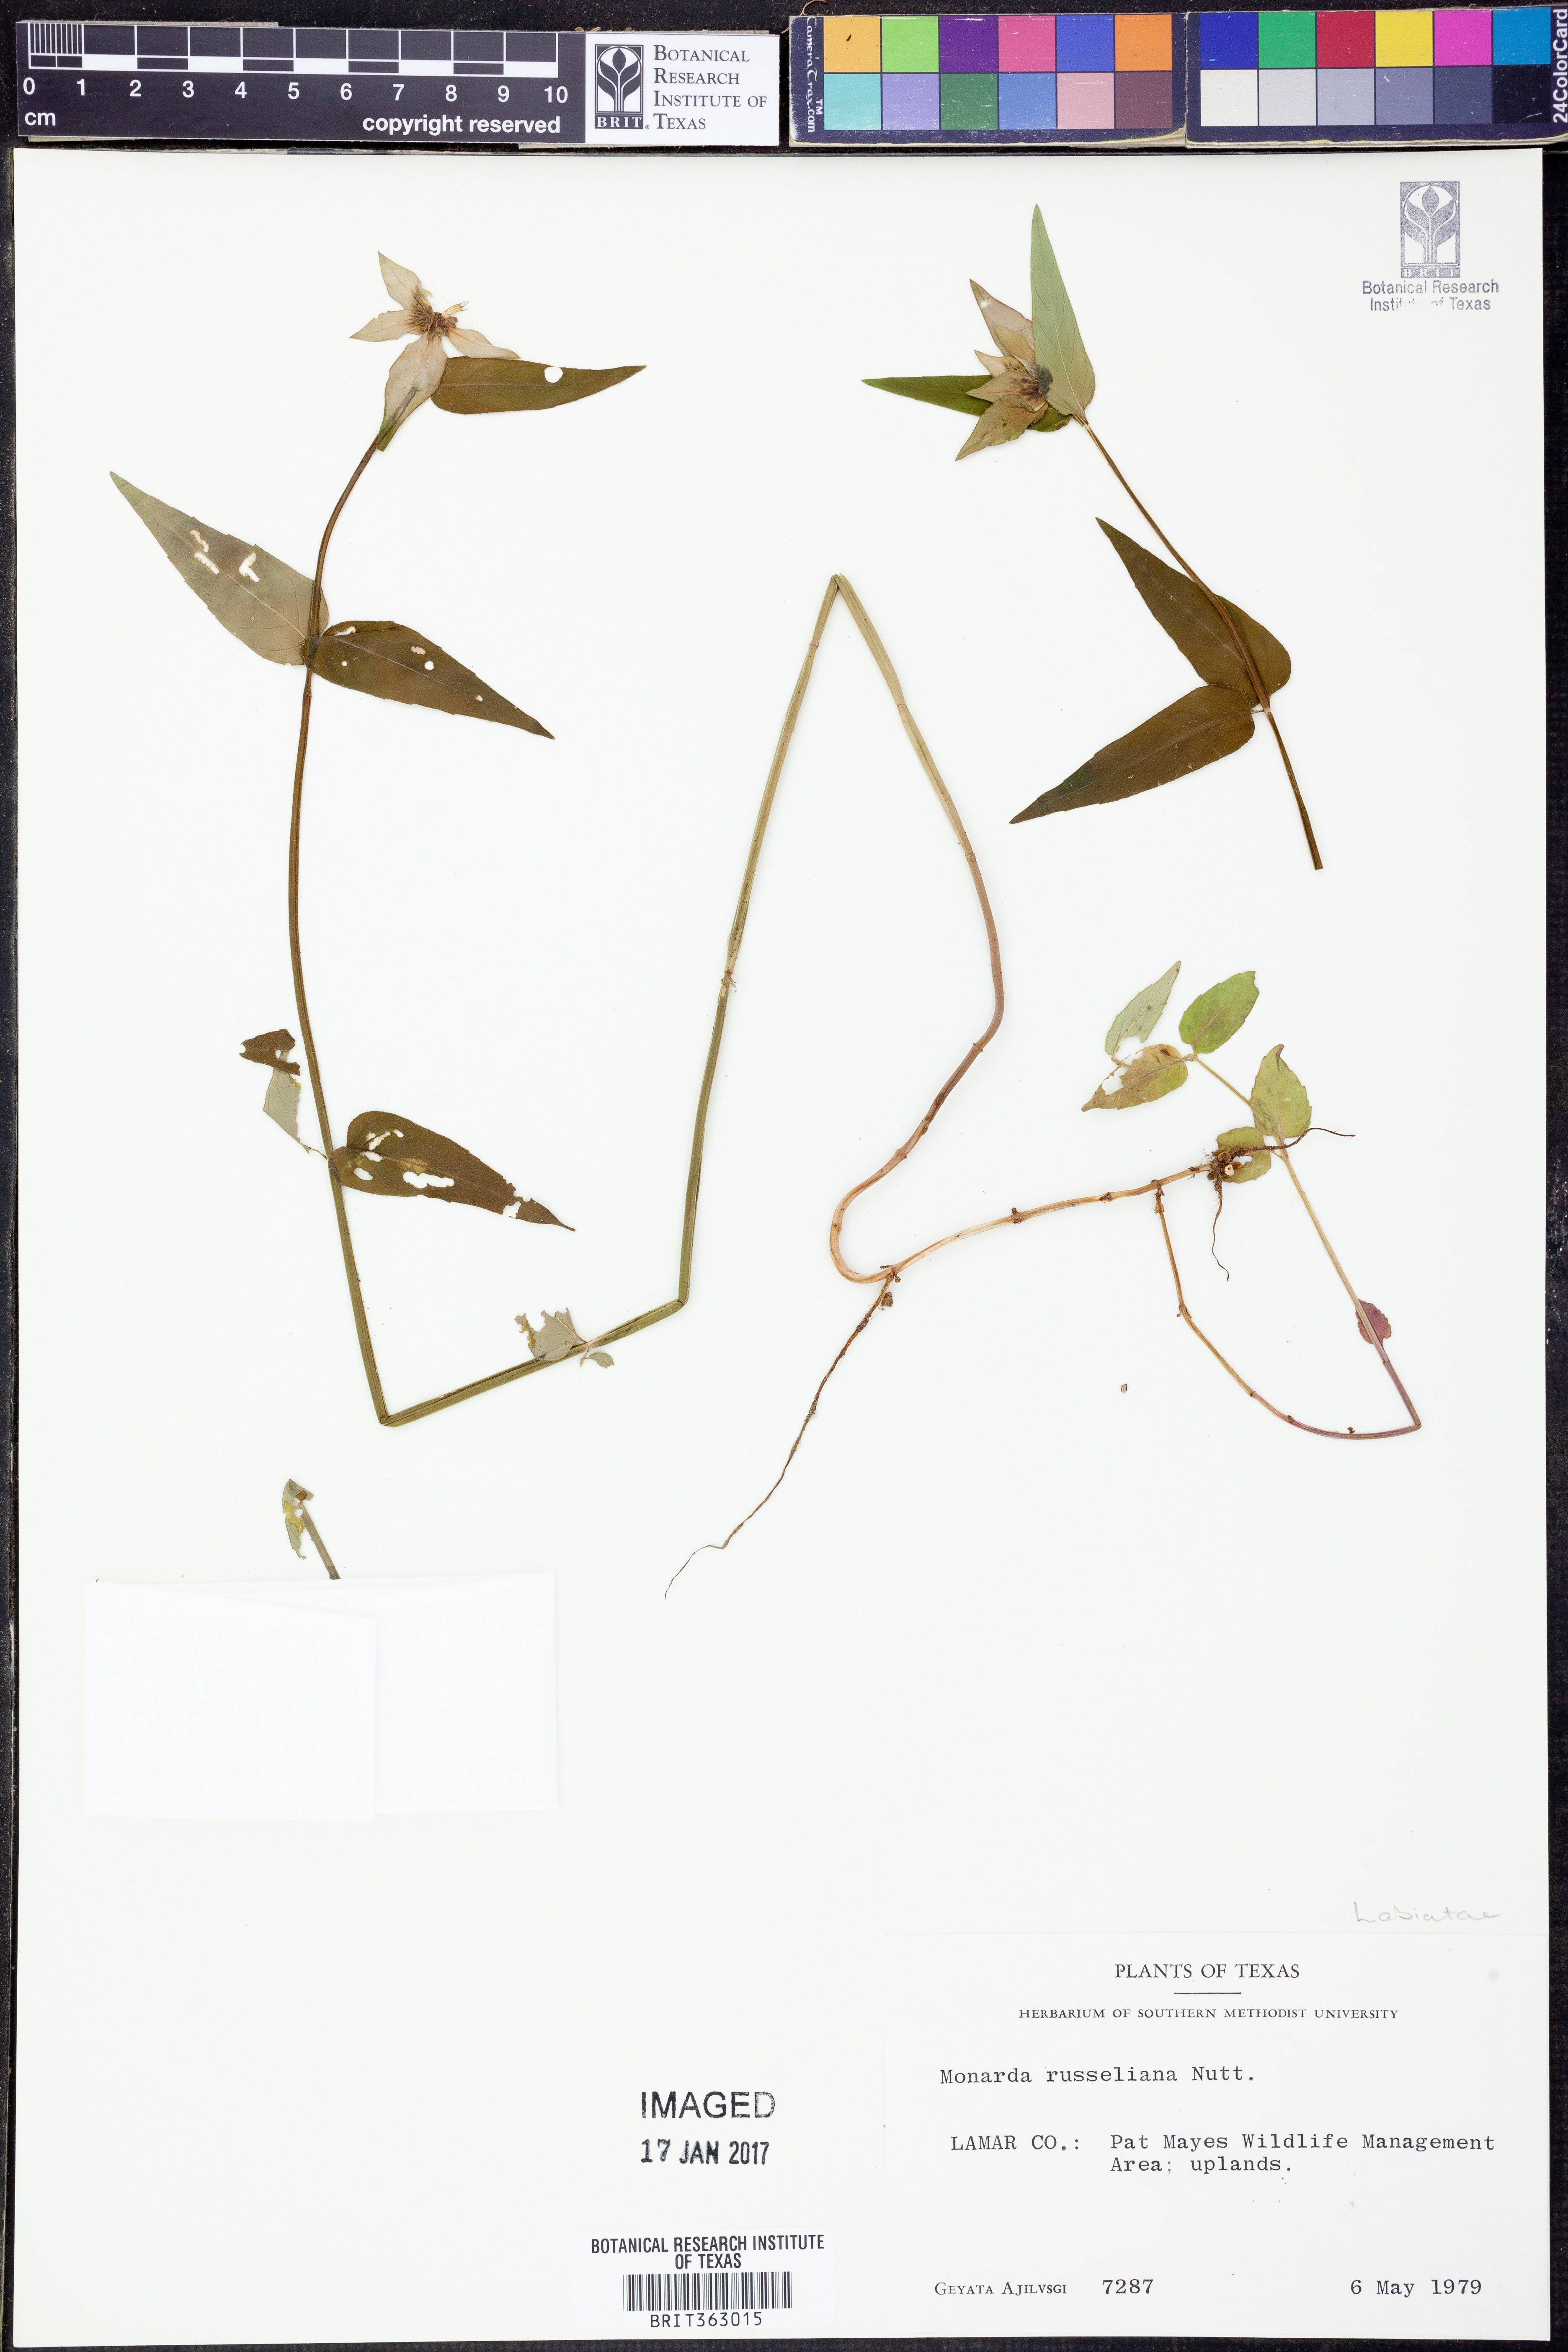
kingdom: Plantae
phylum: Tracheophyta
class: Magnoliopsida
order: Lamiales
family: Lamiaceae
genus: Monarda
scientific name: Monarda russeliana
